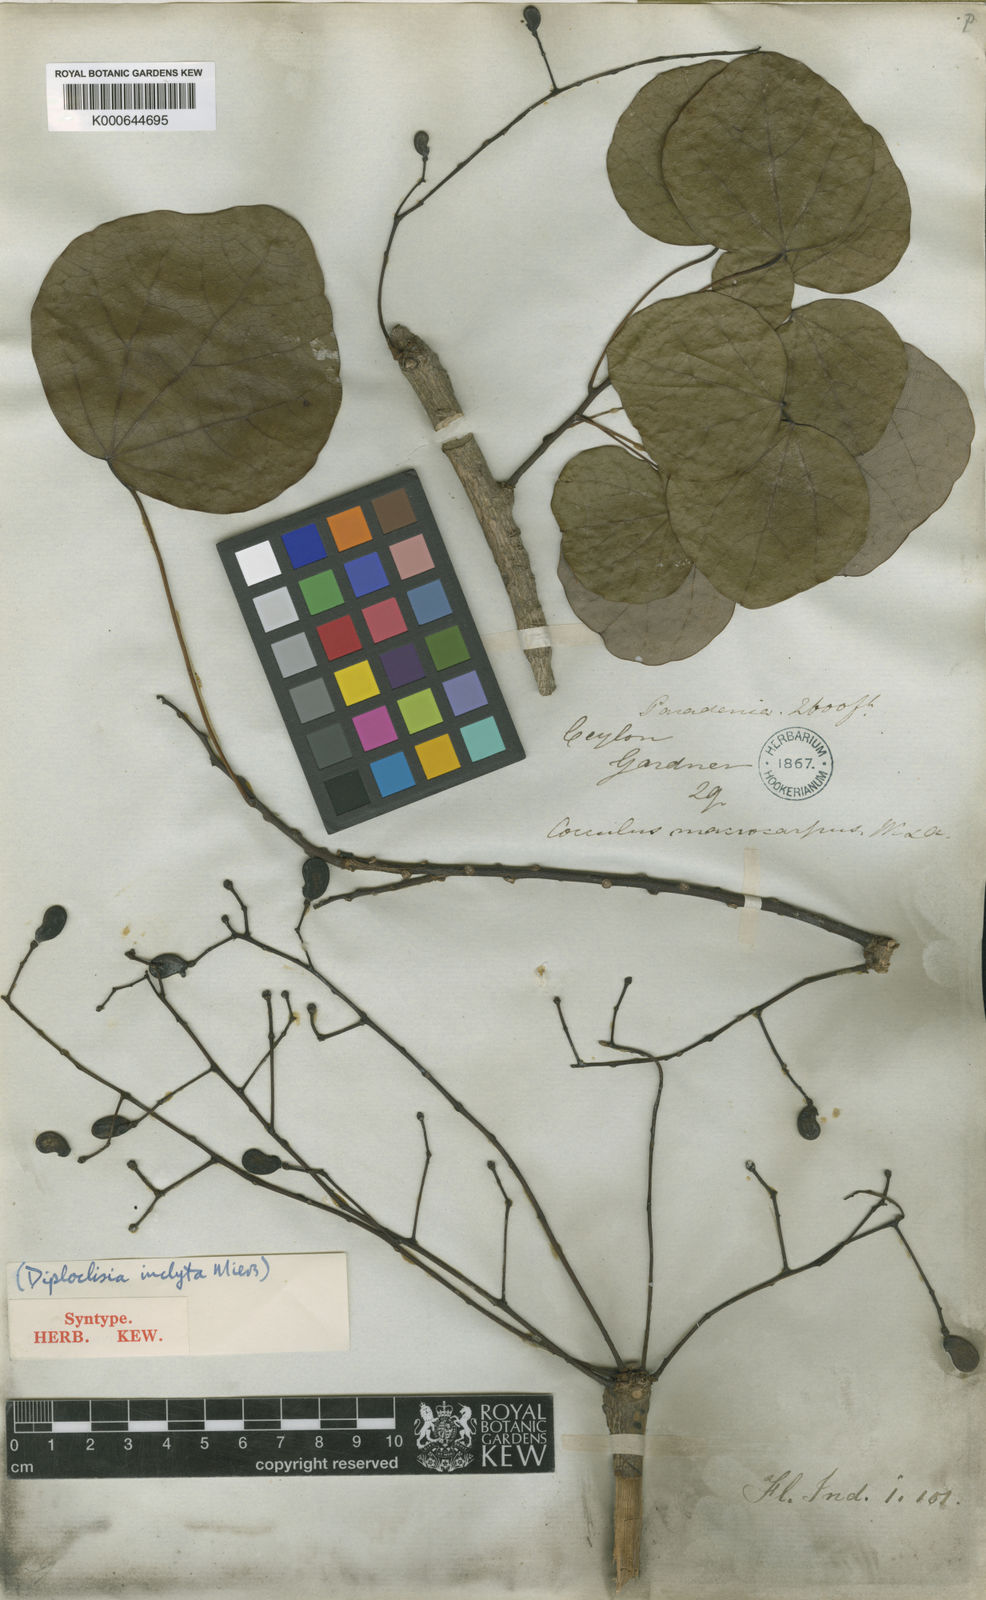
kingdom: Plantae
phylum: Tracheophyta
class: Magnoliopsida
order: Ranunculales
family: Menispermaceae
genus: Diploclisia
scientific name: Diploclisia glaucescens
